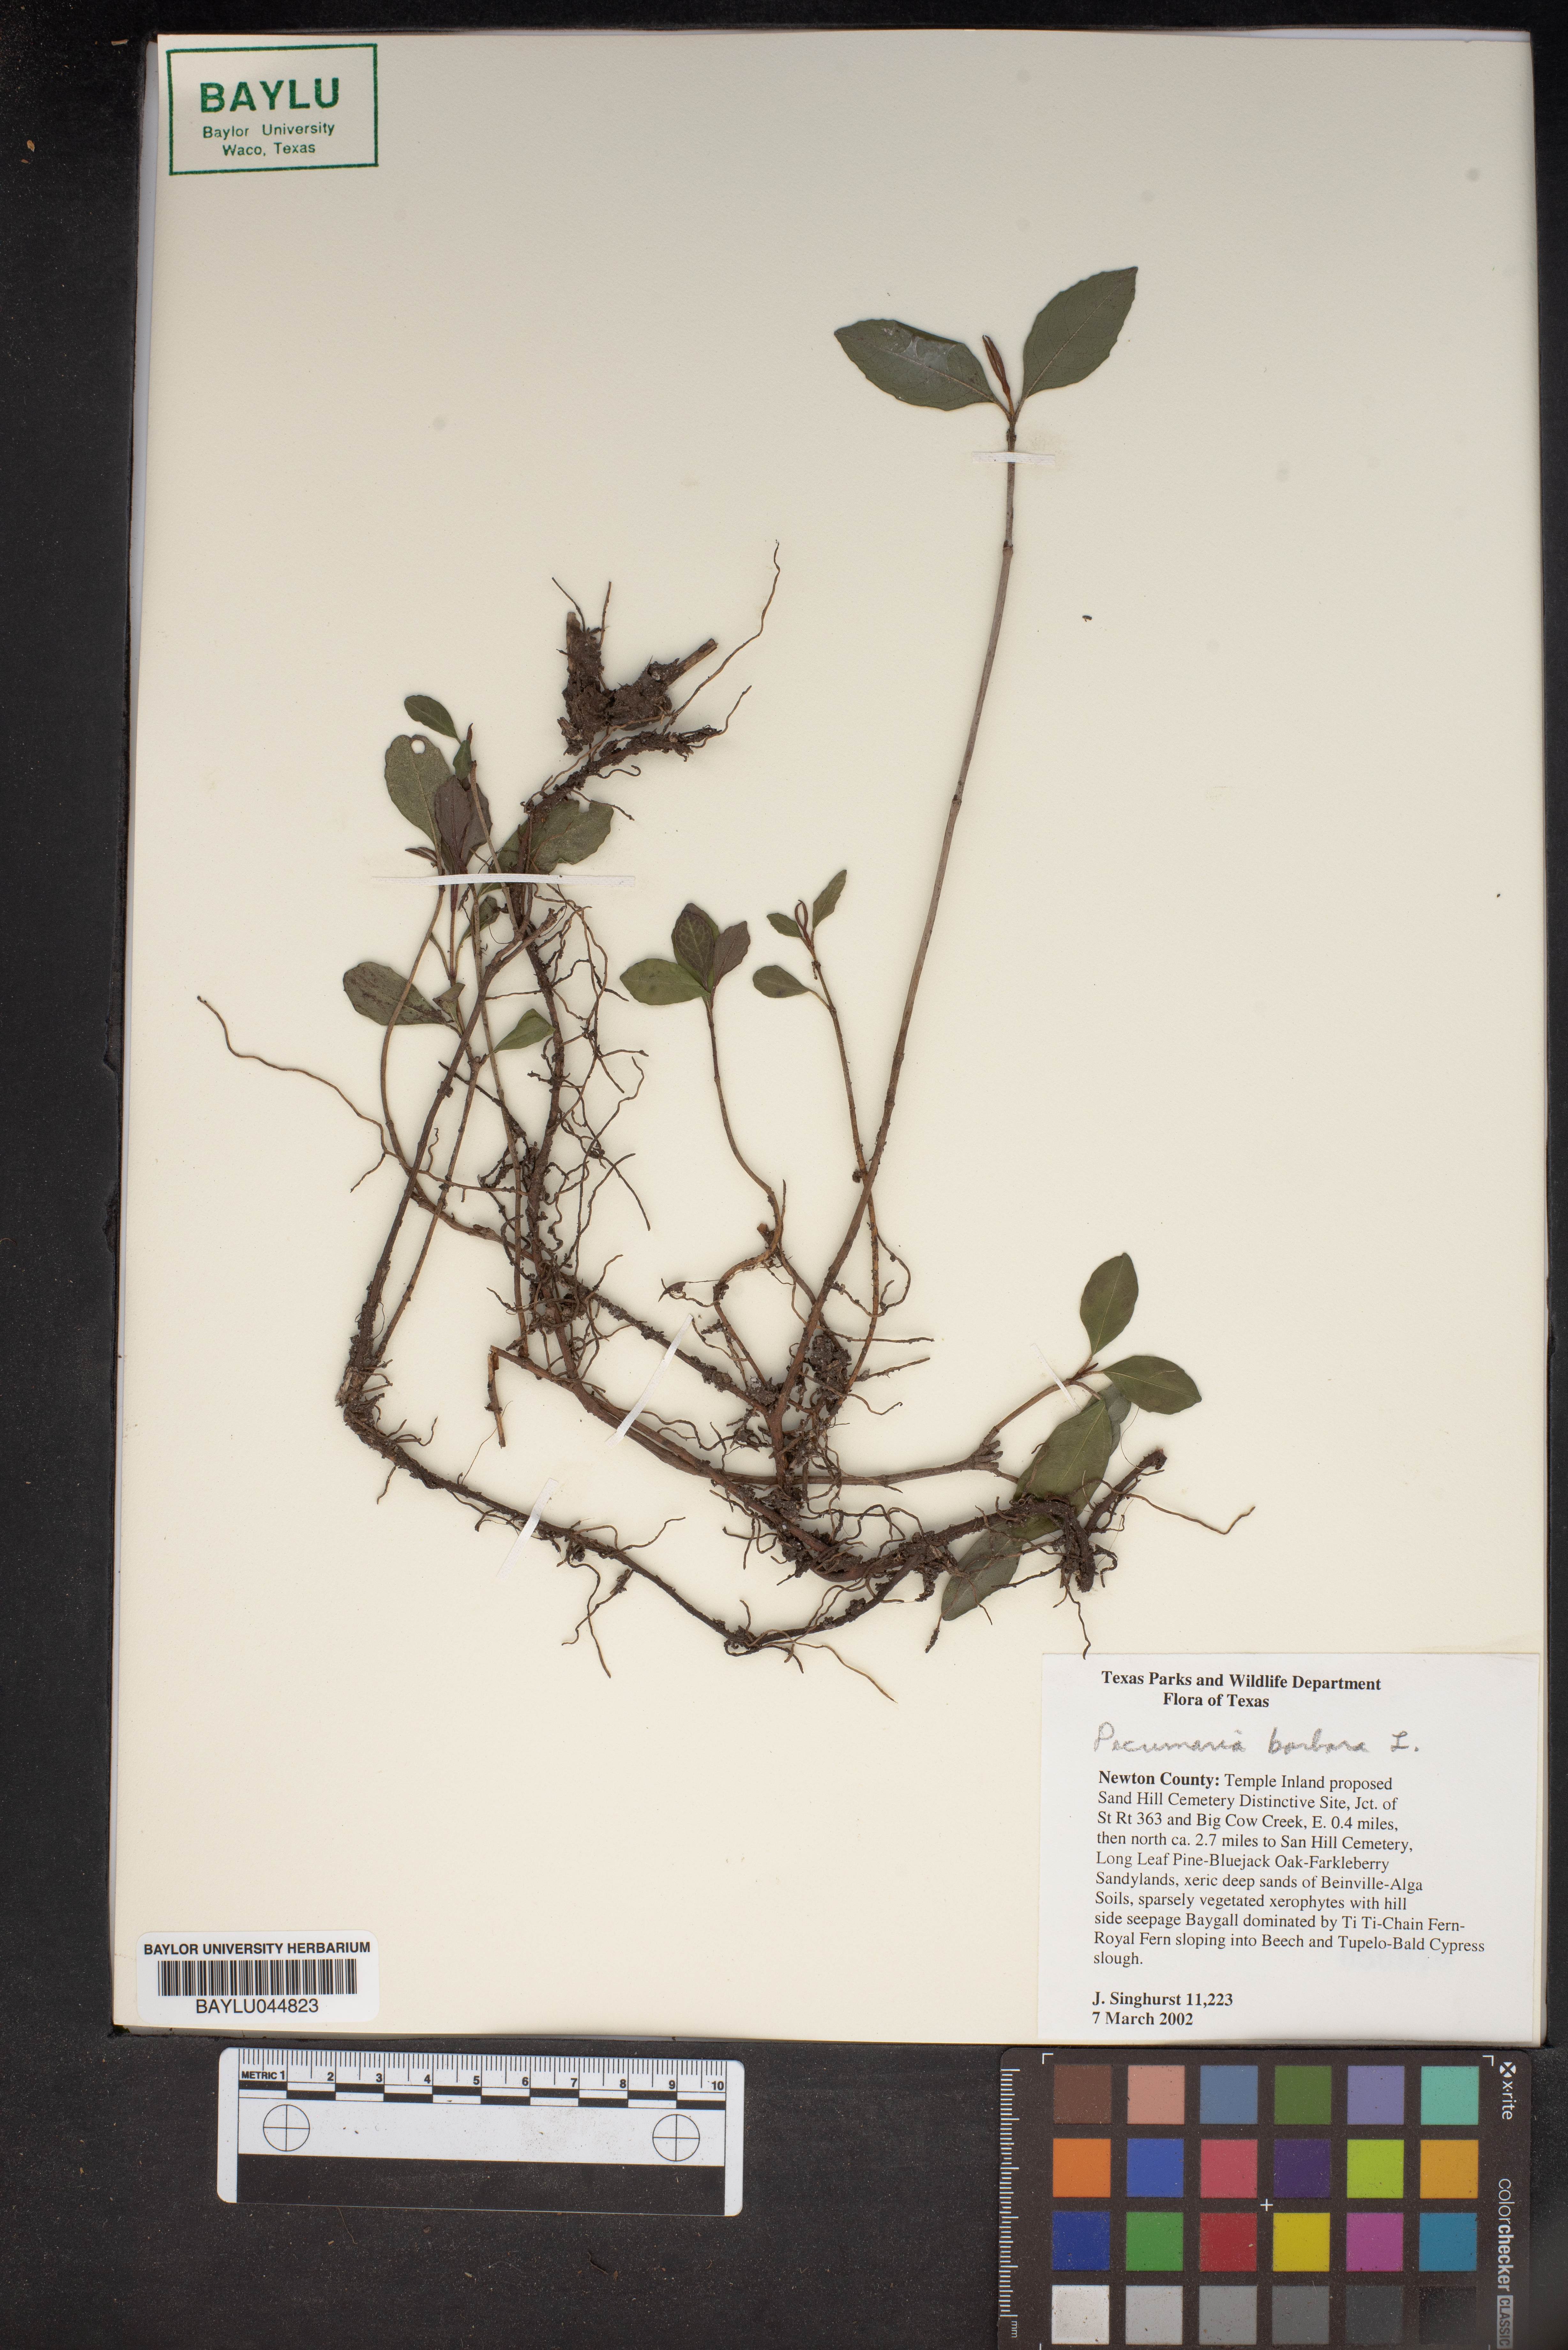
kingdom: Plantae
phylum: Tracheophyta
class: Magnoliopsida
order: Cornales
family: Hydrangeaceae
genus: Hydrangea
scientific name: Hydrangea barbara
